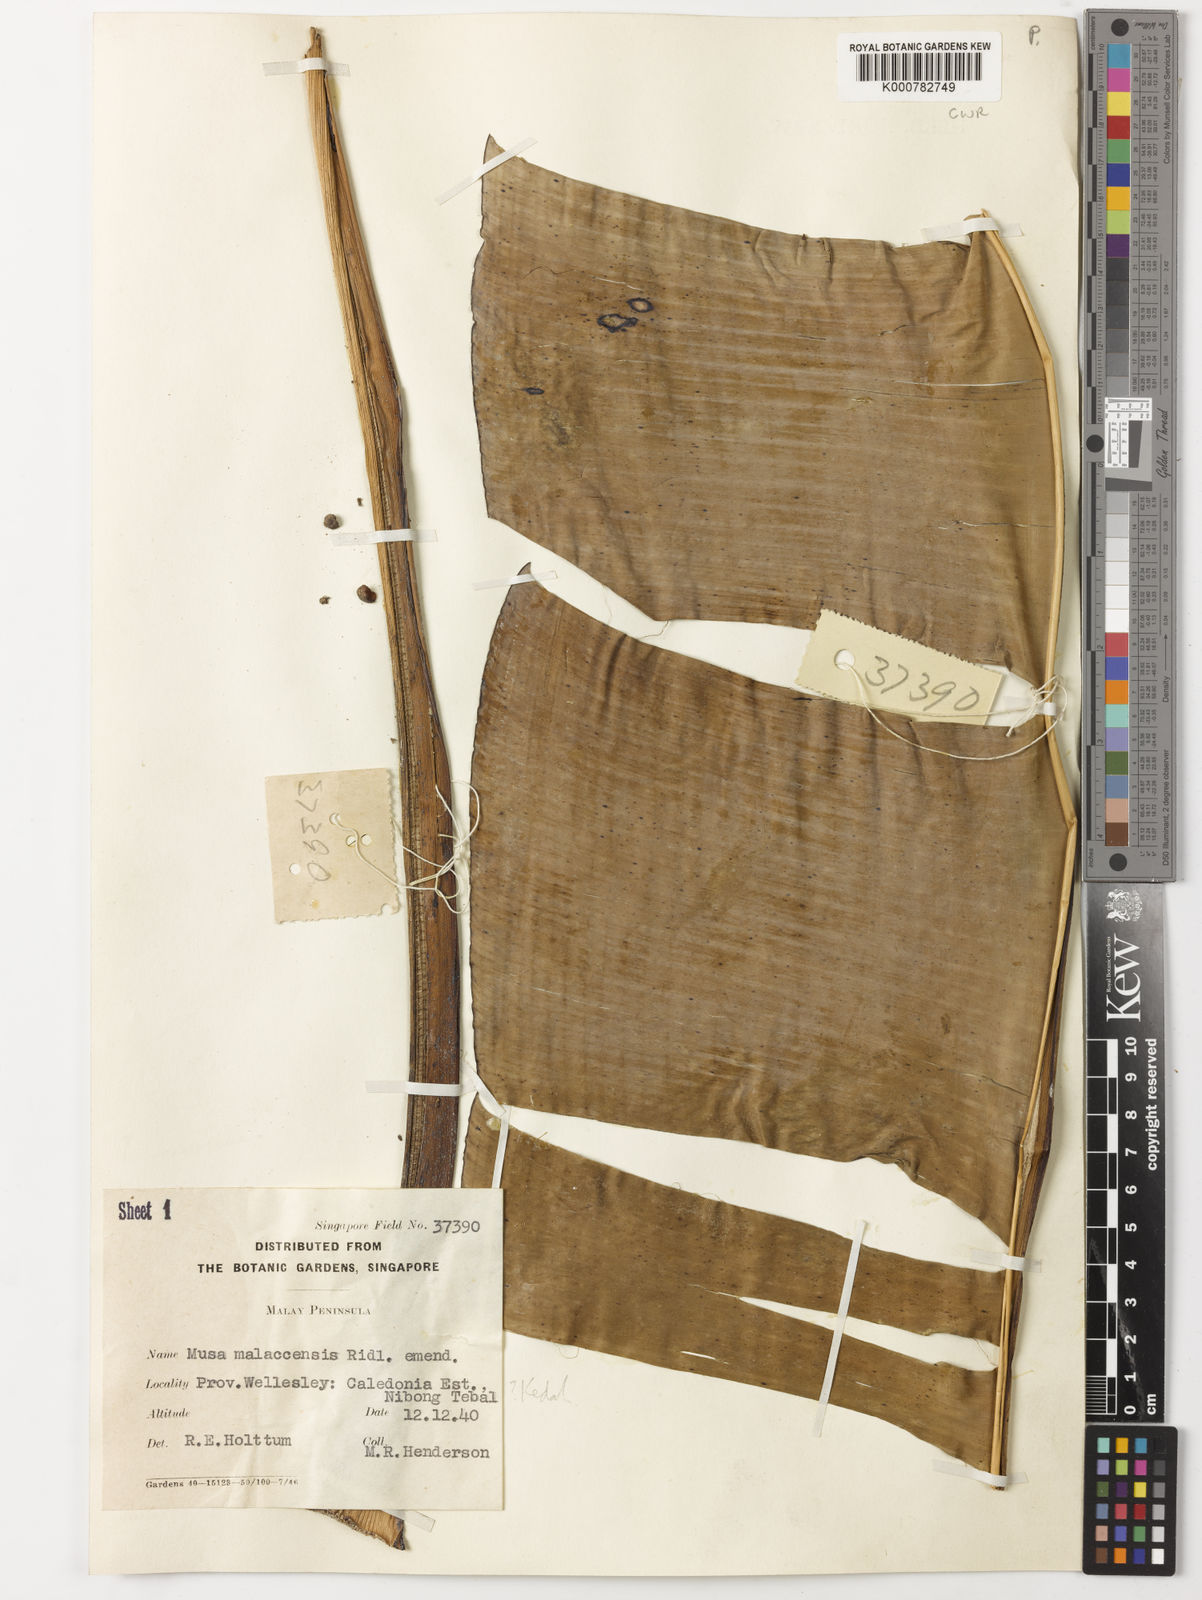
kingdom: Plantae
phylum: Tracheophyta
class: Liliopsida
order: Zingiberales
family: Musaceae
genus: Musa
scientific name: Musa acuminata
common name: Edible banana
